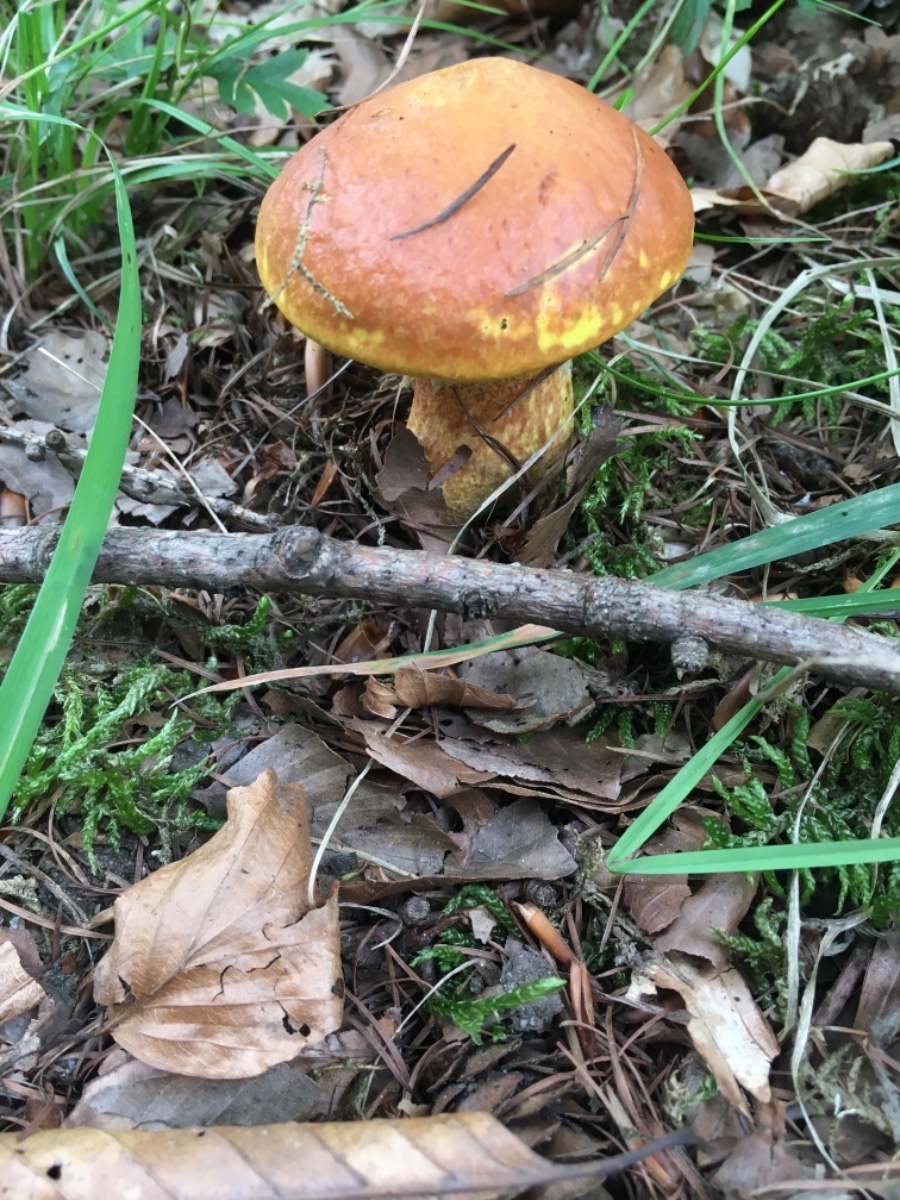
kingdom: Fungi
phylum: Basidiomycota
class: Agaricomycetes
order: Boletales
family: Suillaceae
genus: Suillus
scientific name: Suillus grevillei
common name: lærke-slimrørhat
